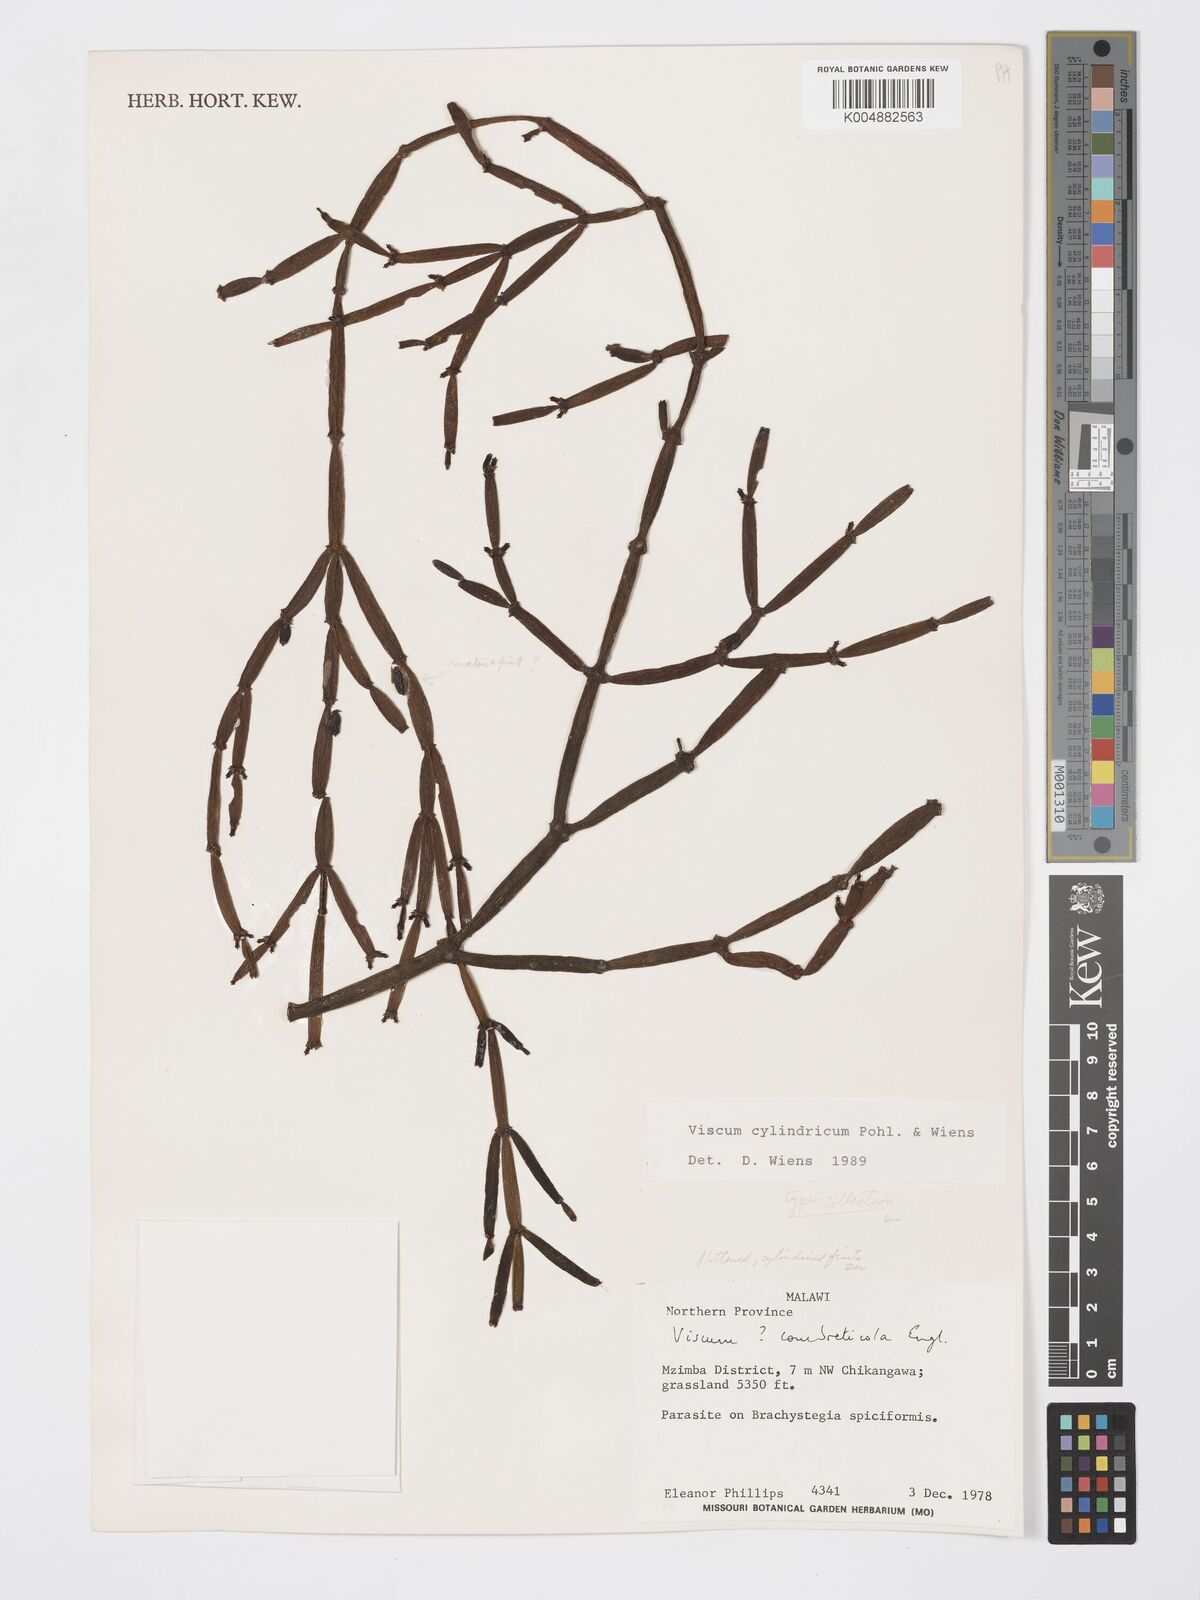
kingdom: Plantae
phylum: Tracheophyta
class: Magnoliopsida
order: Santalales
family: Viscaceae
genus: Viscum
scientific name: Viscum cylindricum
